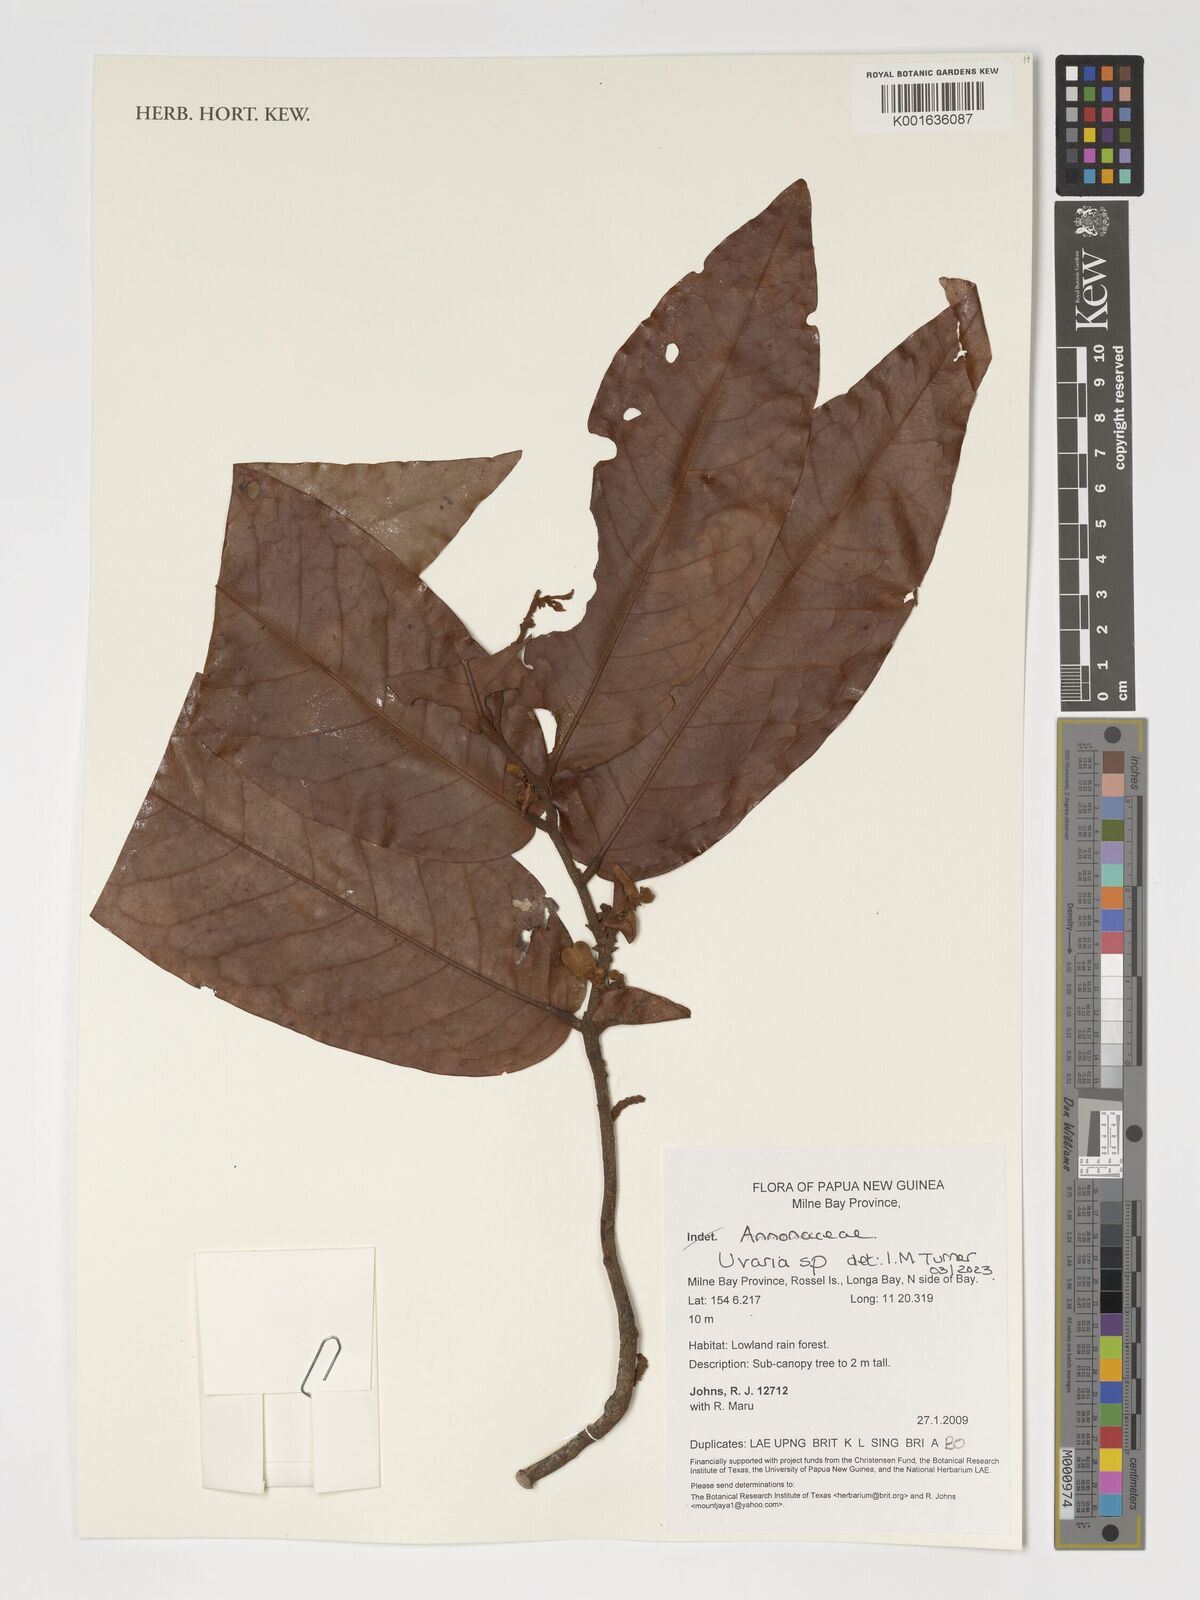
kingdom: Plantae
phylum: Tracheophyta
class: Magnoliopsida
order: Magnoliales
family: Annonaceae
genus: Uvaria
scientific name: Uvaria
